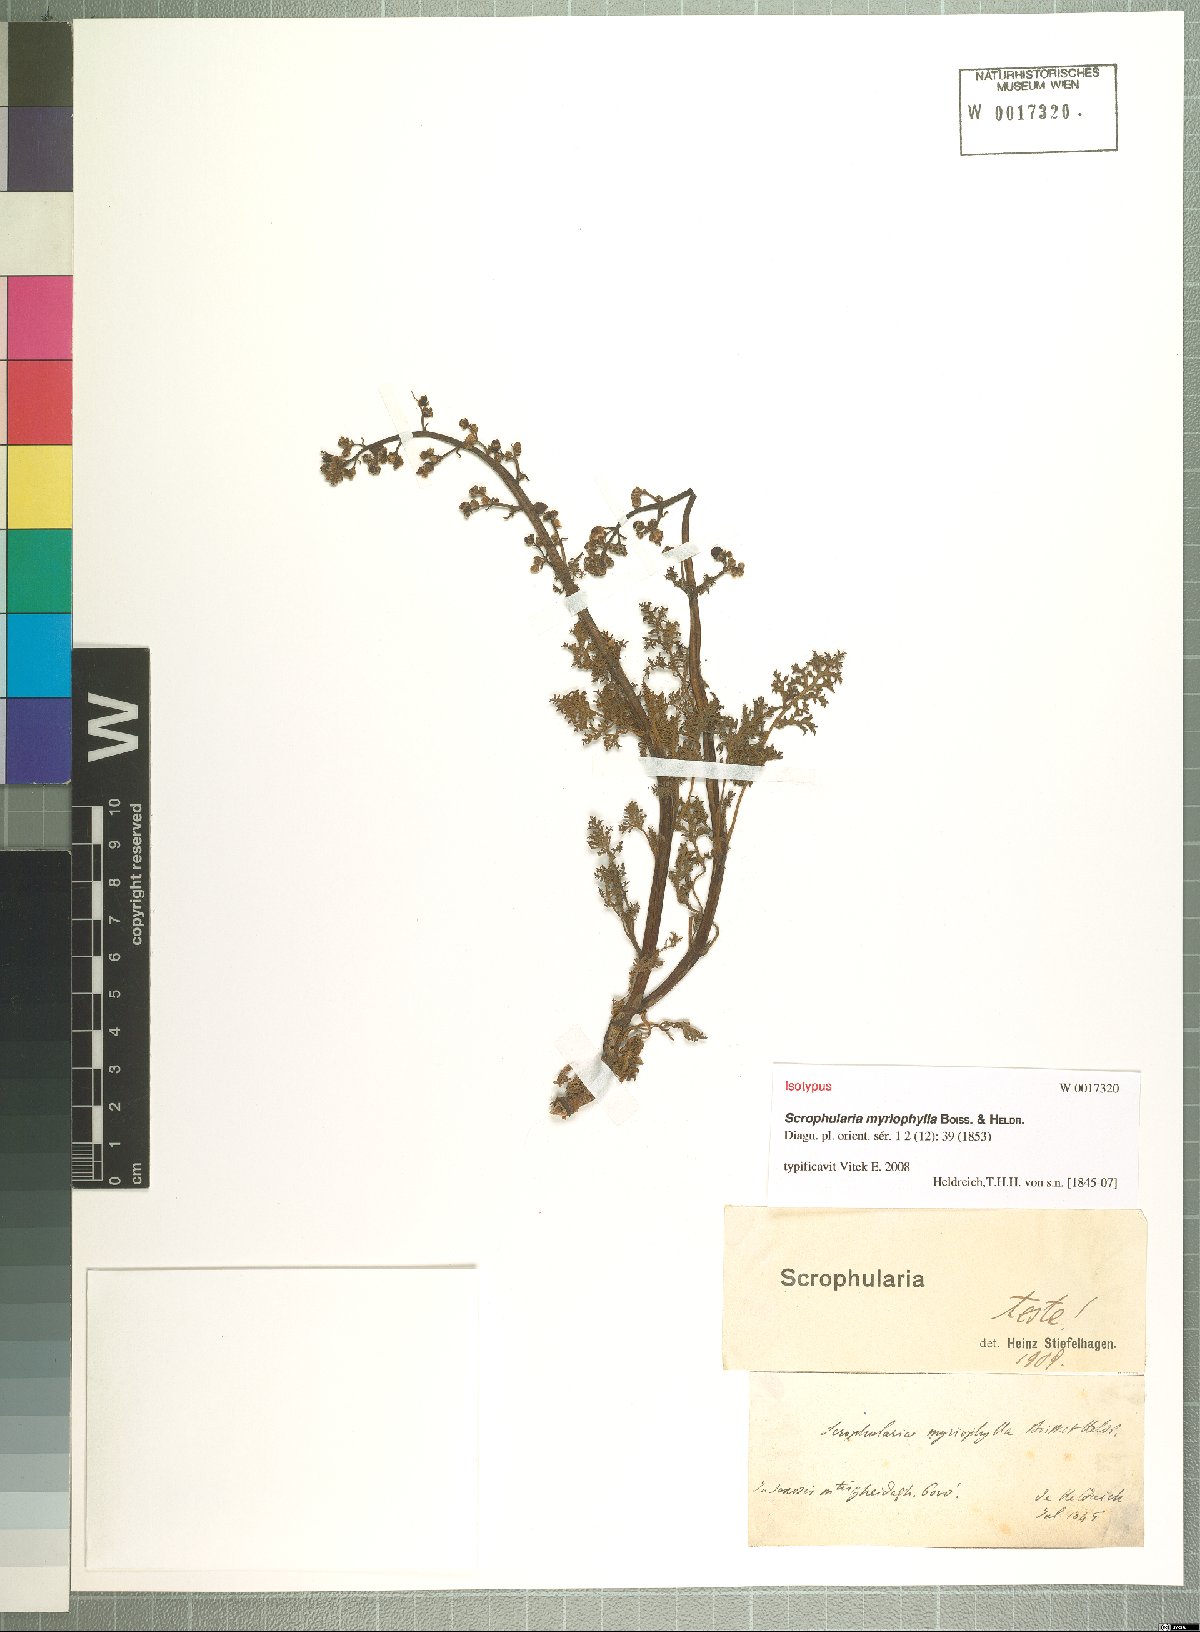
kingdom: Plantae
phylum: Tracheophyta
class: Magnoliopsida
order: Lamiales
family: Scrophulariaceae
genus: Scrophularia
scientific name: Scrophularia myriophylla
